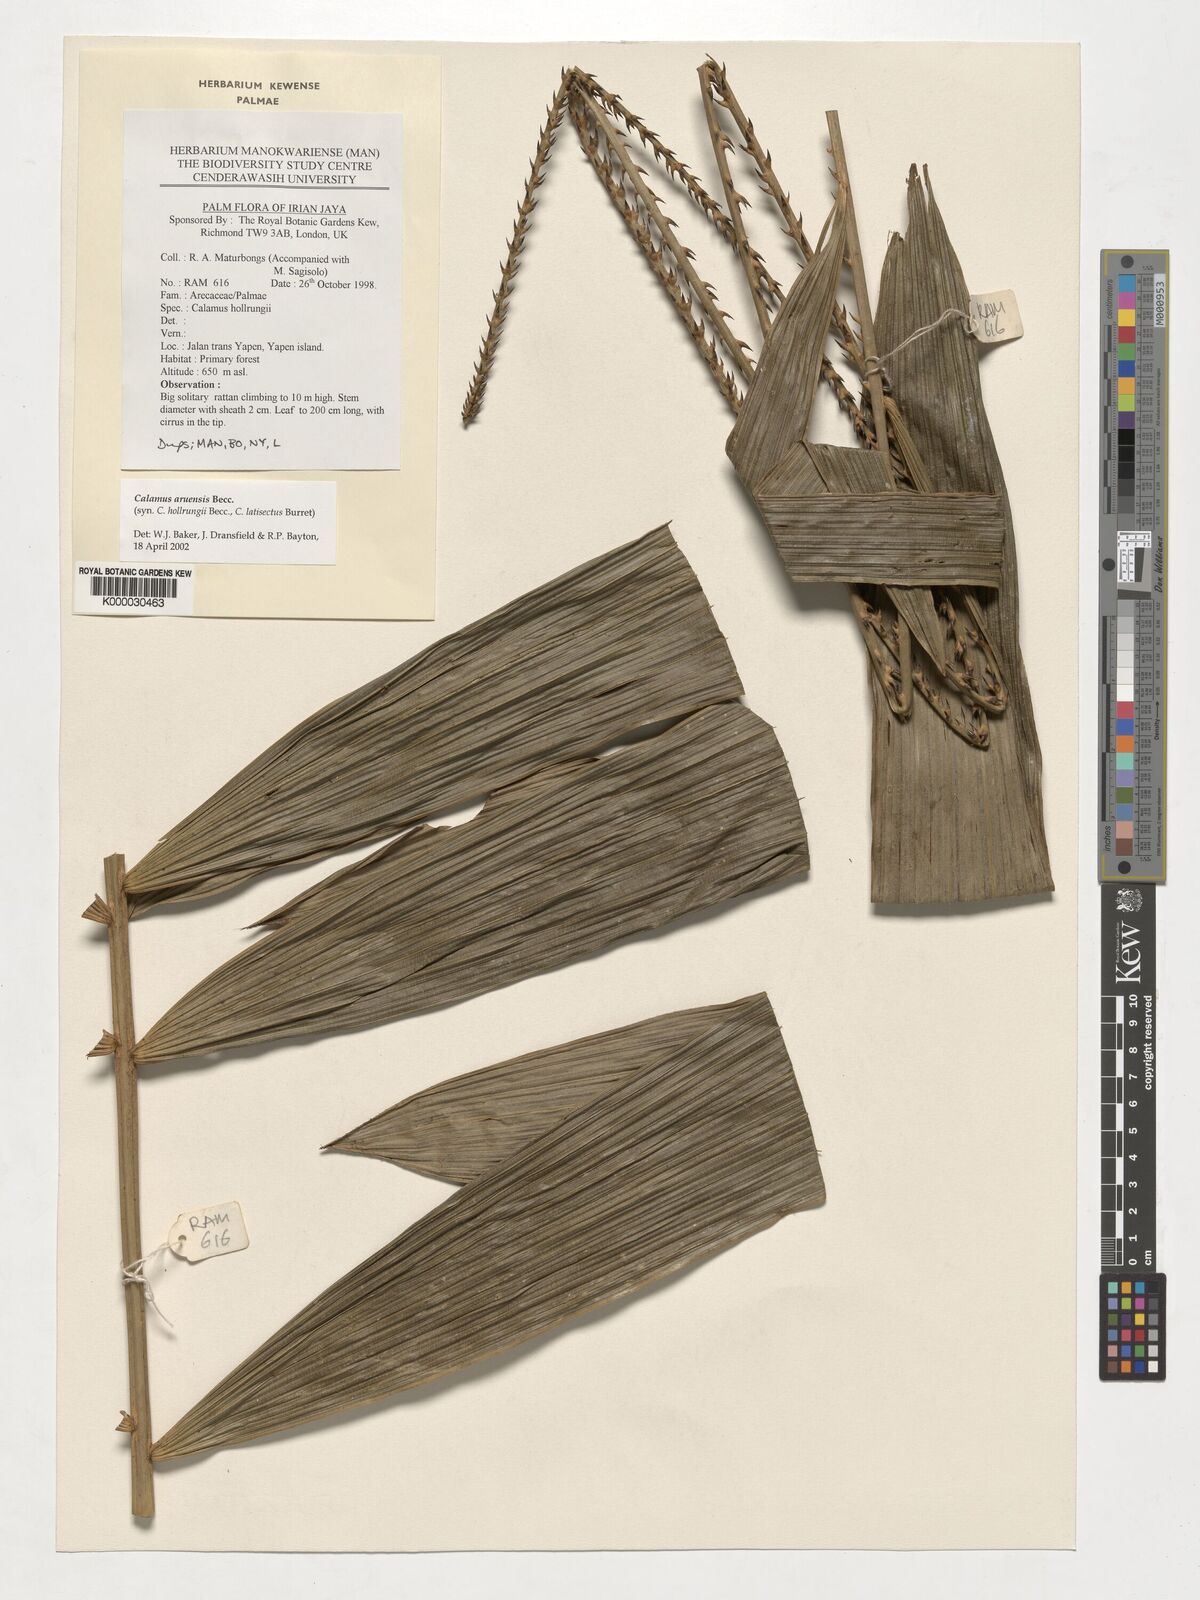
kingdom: Plantae
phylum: Tracheophyta
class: Liliopsida
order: Arecales
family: Arecaceae
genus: Calamus
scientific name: Calamus aruensis
